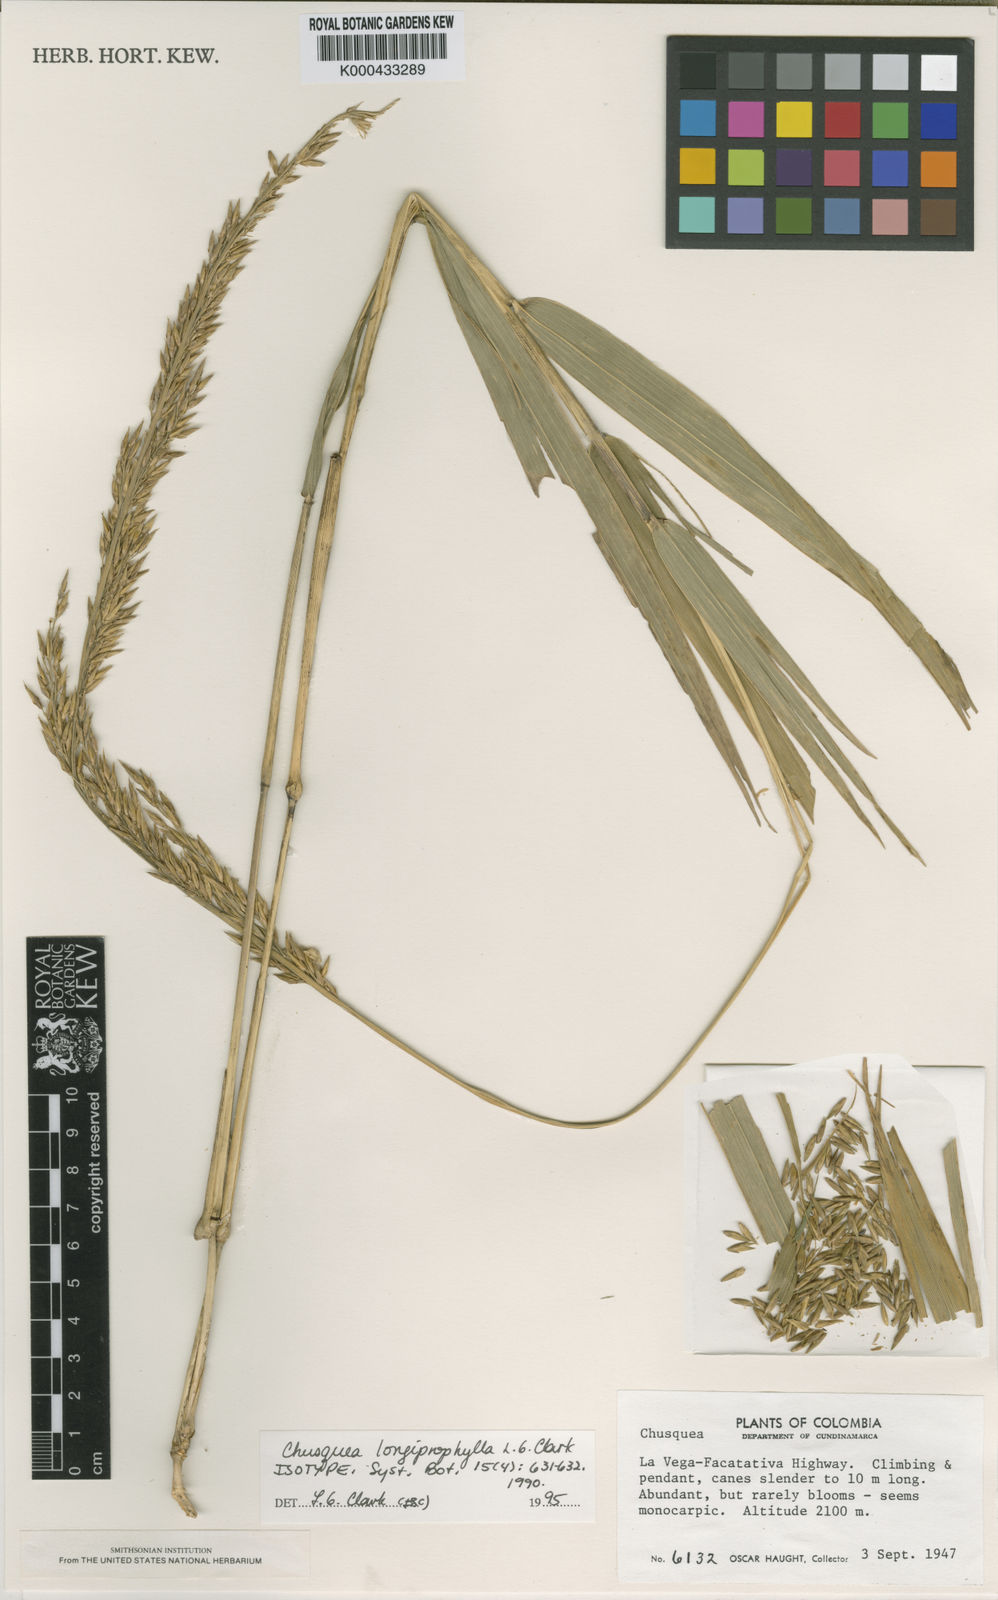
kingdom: Plantae
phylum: Tracheophyta
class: Liliopsida
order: Poales
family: Poaceae
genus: Chusquea
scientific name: Chusquea longiprophylla
